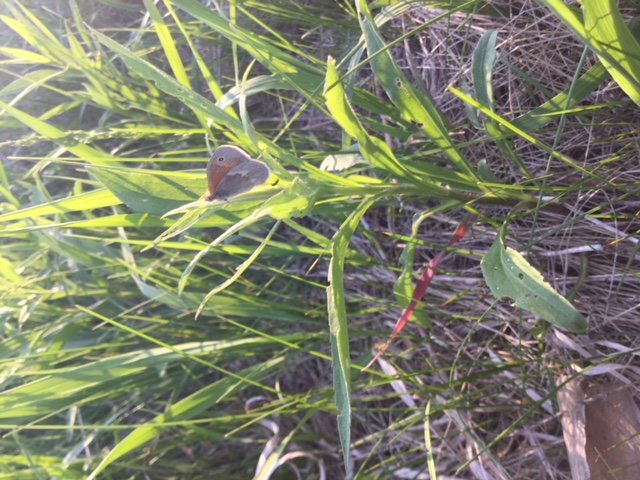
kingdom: Animalia
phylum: Arthropoda
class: Insecta
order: Lepidoptera
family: Nymphalidae
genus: Coenonympha
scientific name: Coenonympha tullia
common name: Large Heath
